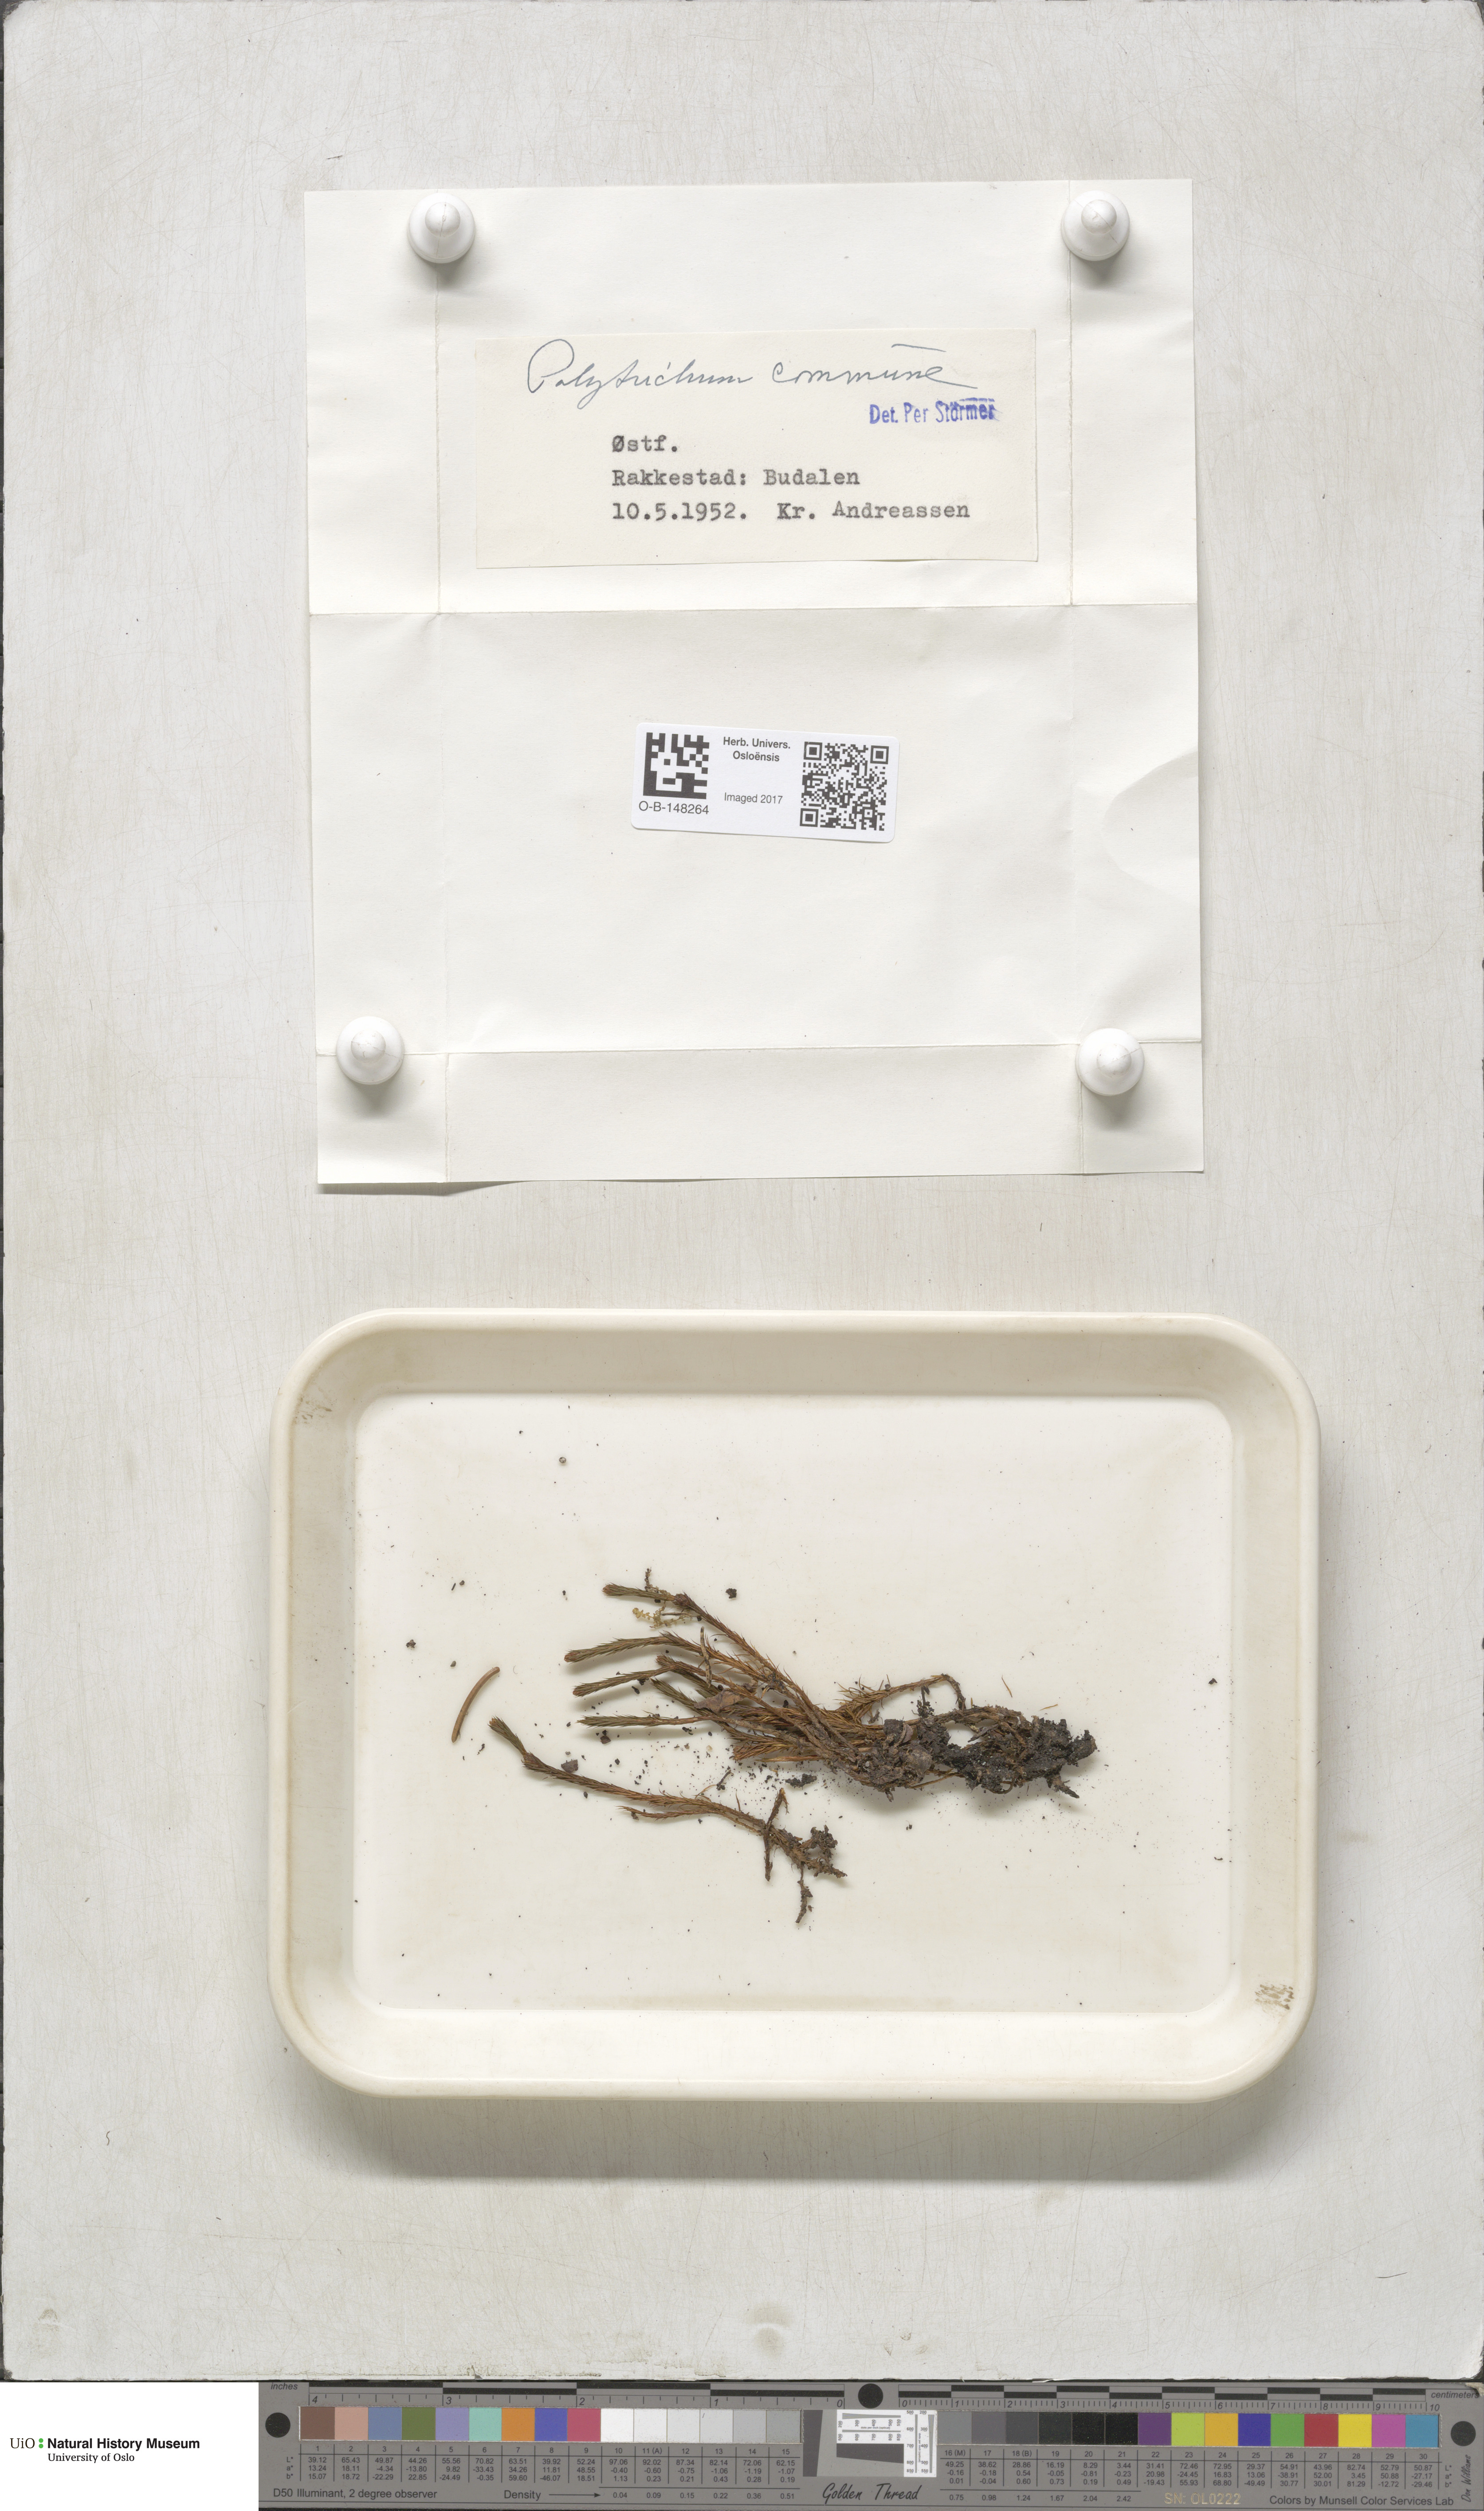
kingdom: Plantae
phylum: Bryophyta
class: Polytrichopsida
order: Polytrichales
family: Polytrichaceae
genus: Polytrichum
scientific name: Polytrichum commune
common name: Common haircap
